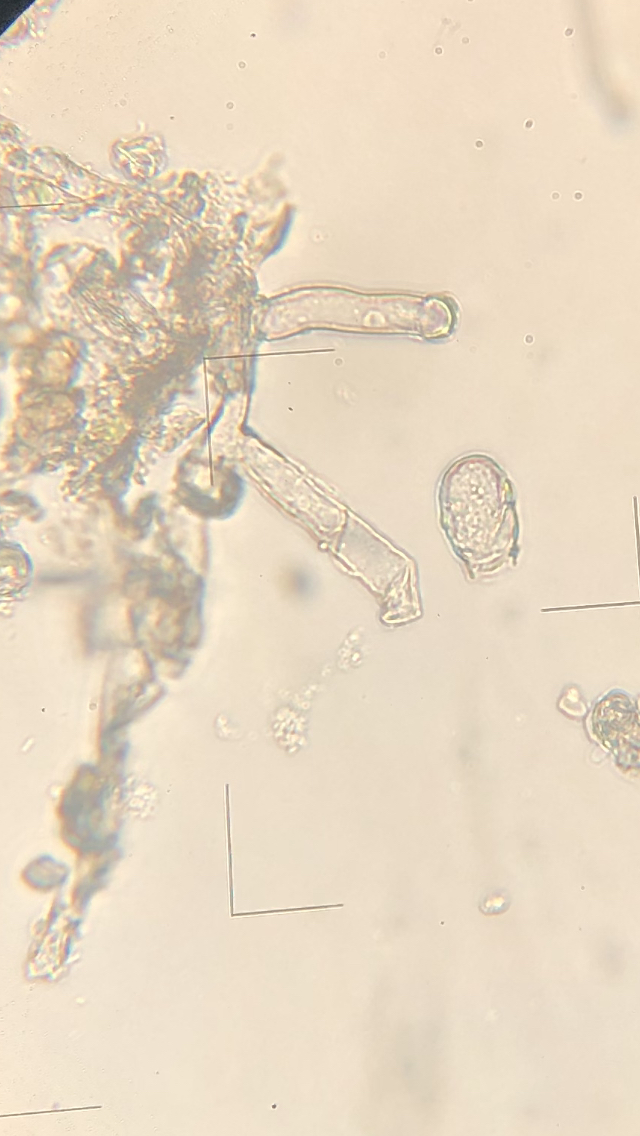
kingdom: Fungi
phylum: Ascomycota
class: Leotiomycetes
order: Helotiales
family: Erysiphaceae
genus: Erysiphe
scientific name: Erysiphe hyperici
